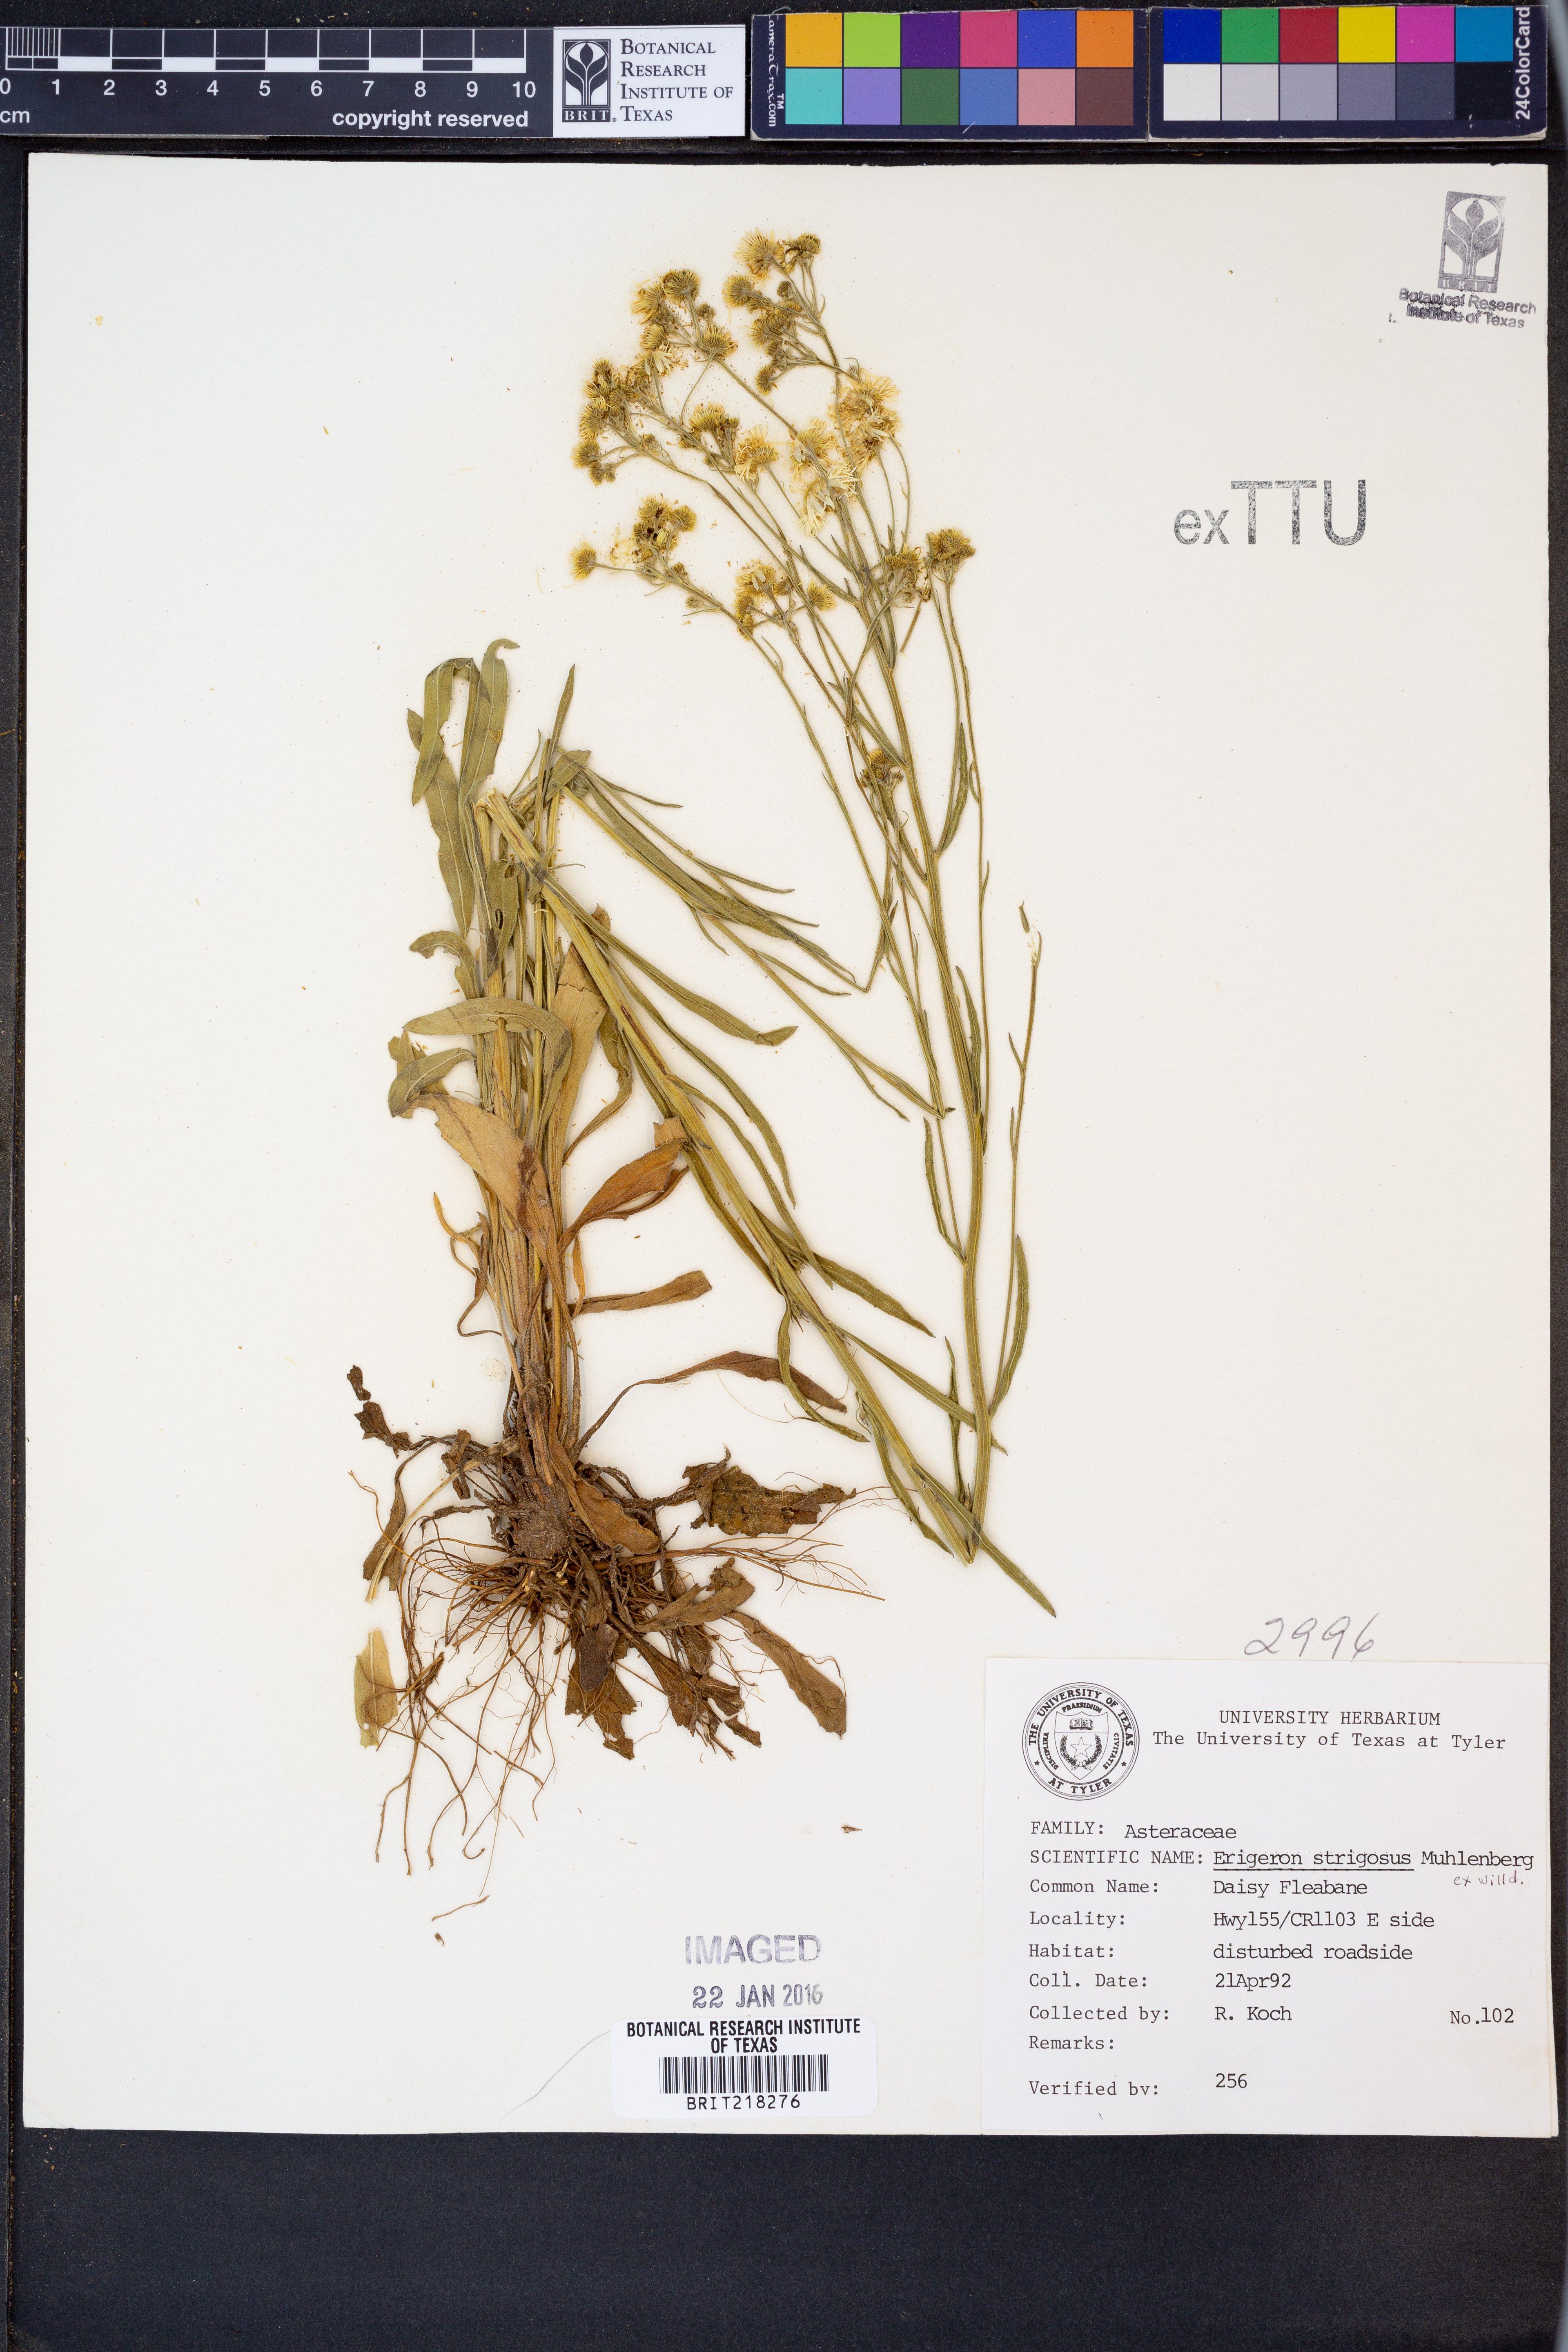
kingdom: Plantae
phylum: Tracheophyta
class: Magnoliopsida
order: Asterales
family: Asteraceae
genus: Erigeron
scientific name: Erigeron strigosus
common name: Common eastern fleabane
